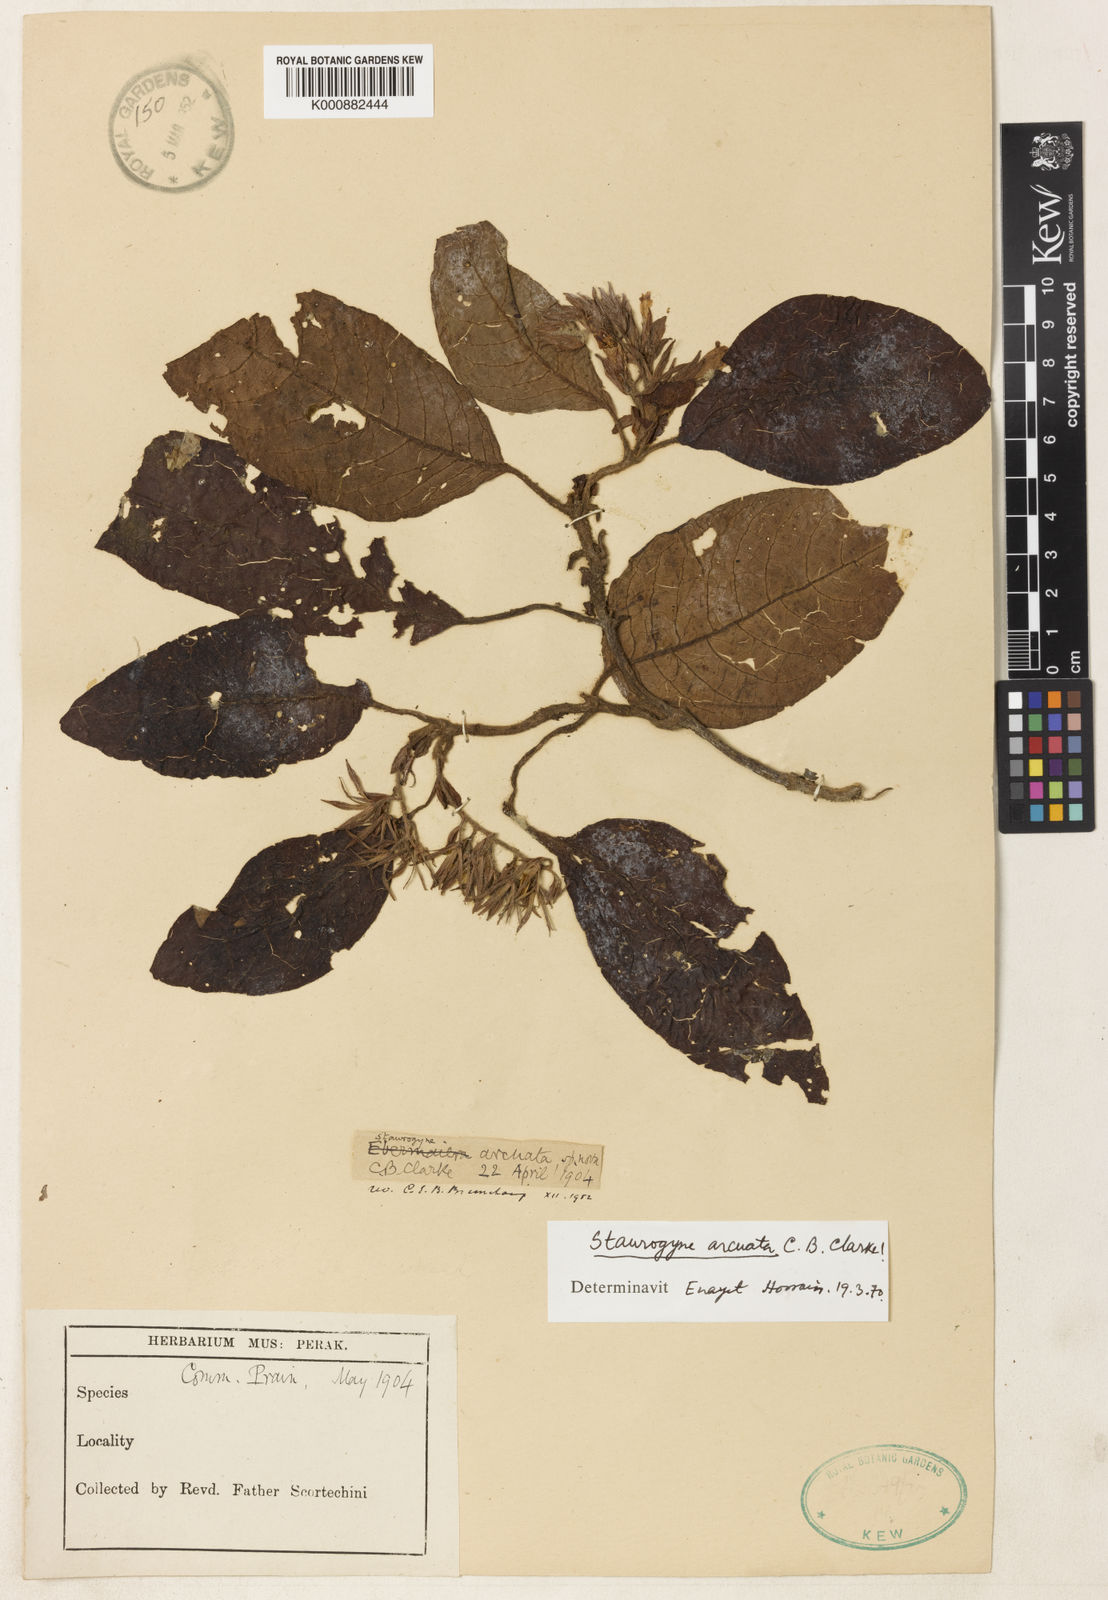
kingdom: Plantae
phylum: Tracheophyta
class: Magnoliopsida
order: Lamiales
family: Acanthaceae
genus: Staurogyne
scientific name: Staurogyne arcuata
